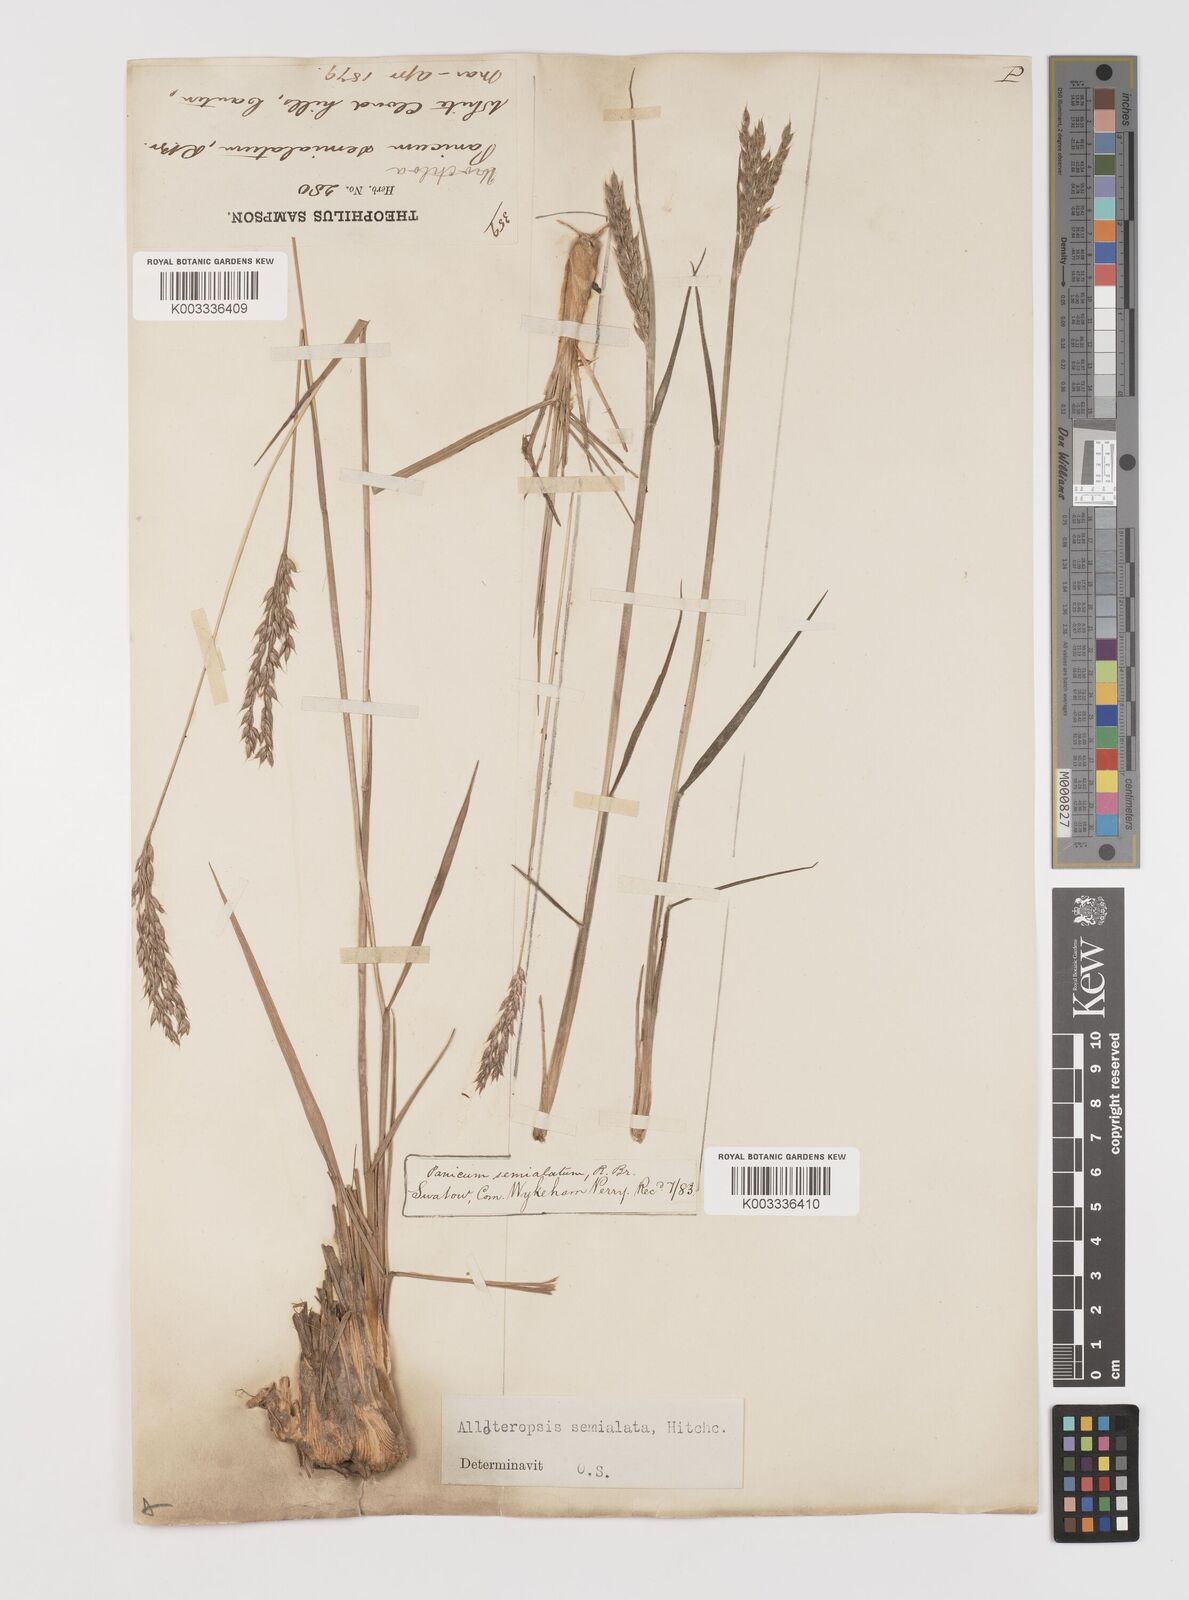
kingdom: Plantae
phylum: Tracheophyta
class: Liliopsida
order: Poales
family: Poaceae
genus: Alloteropsis
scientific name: Alloteropsis semialata
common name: Cockatoo grass
